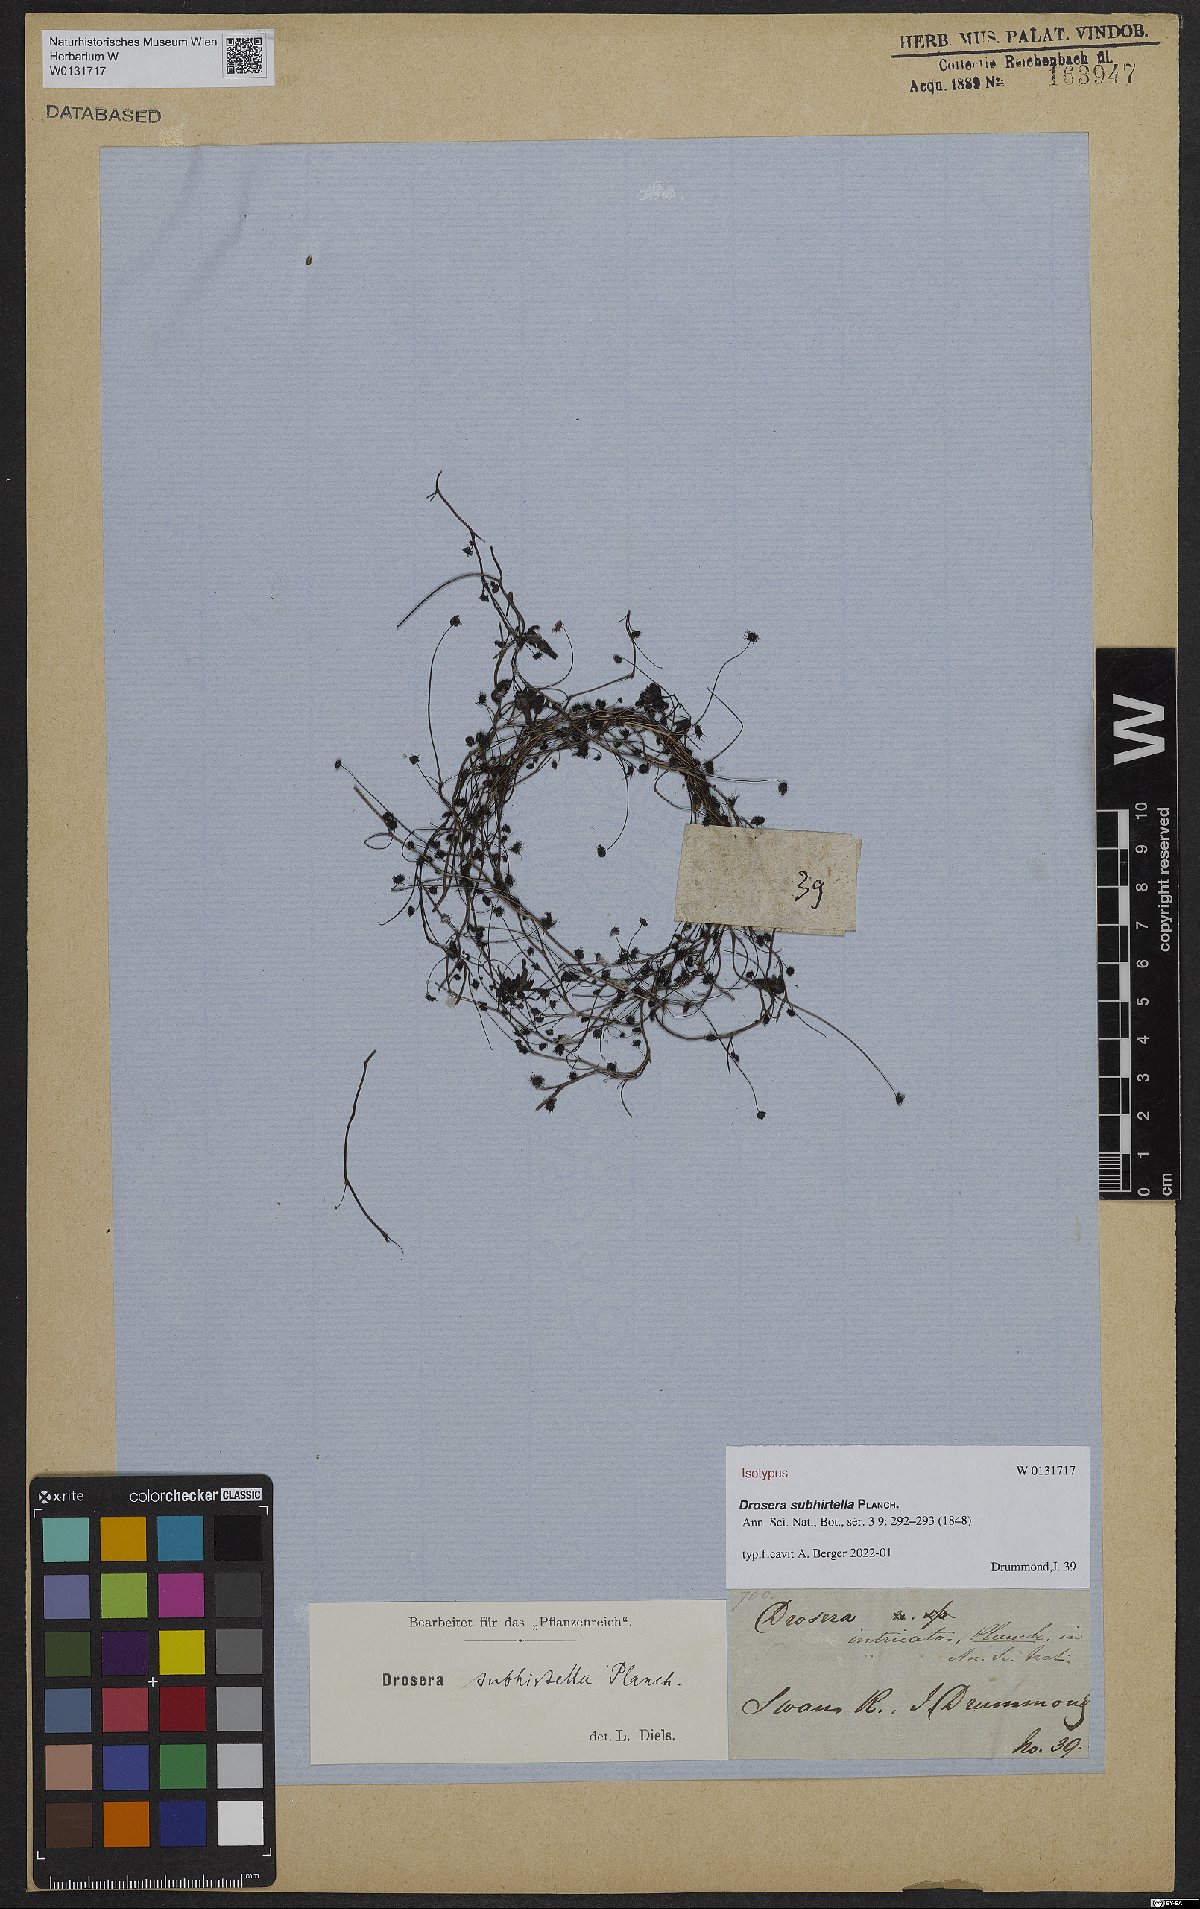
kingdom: Plantae
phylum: Tracheophyta
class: Magnoliopsida
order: Caryophyllales
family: Droseraceae
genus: Drosera
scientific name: Drosera subhirtella
